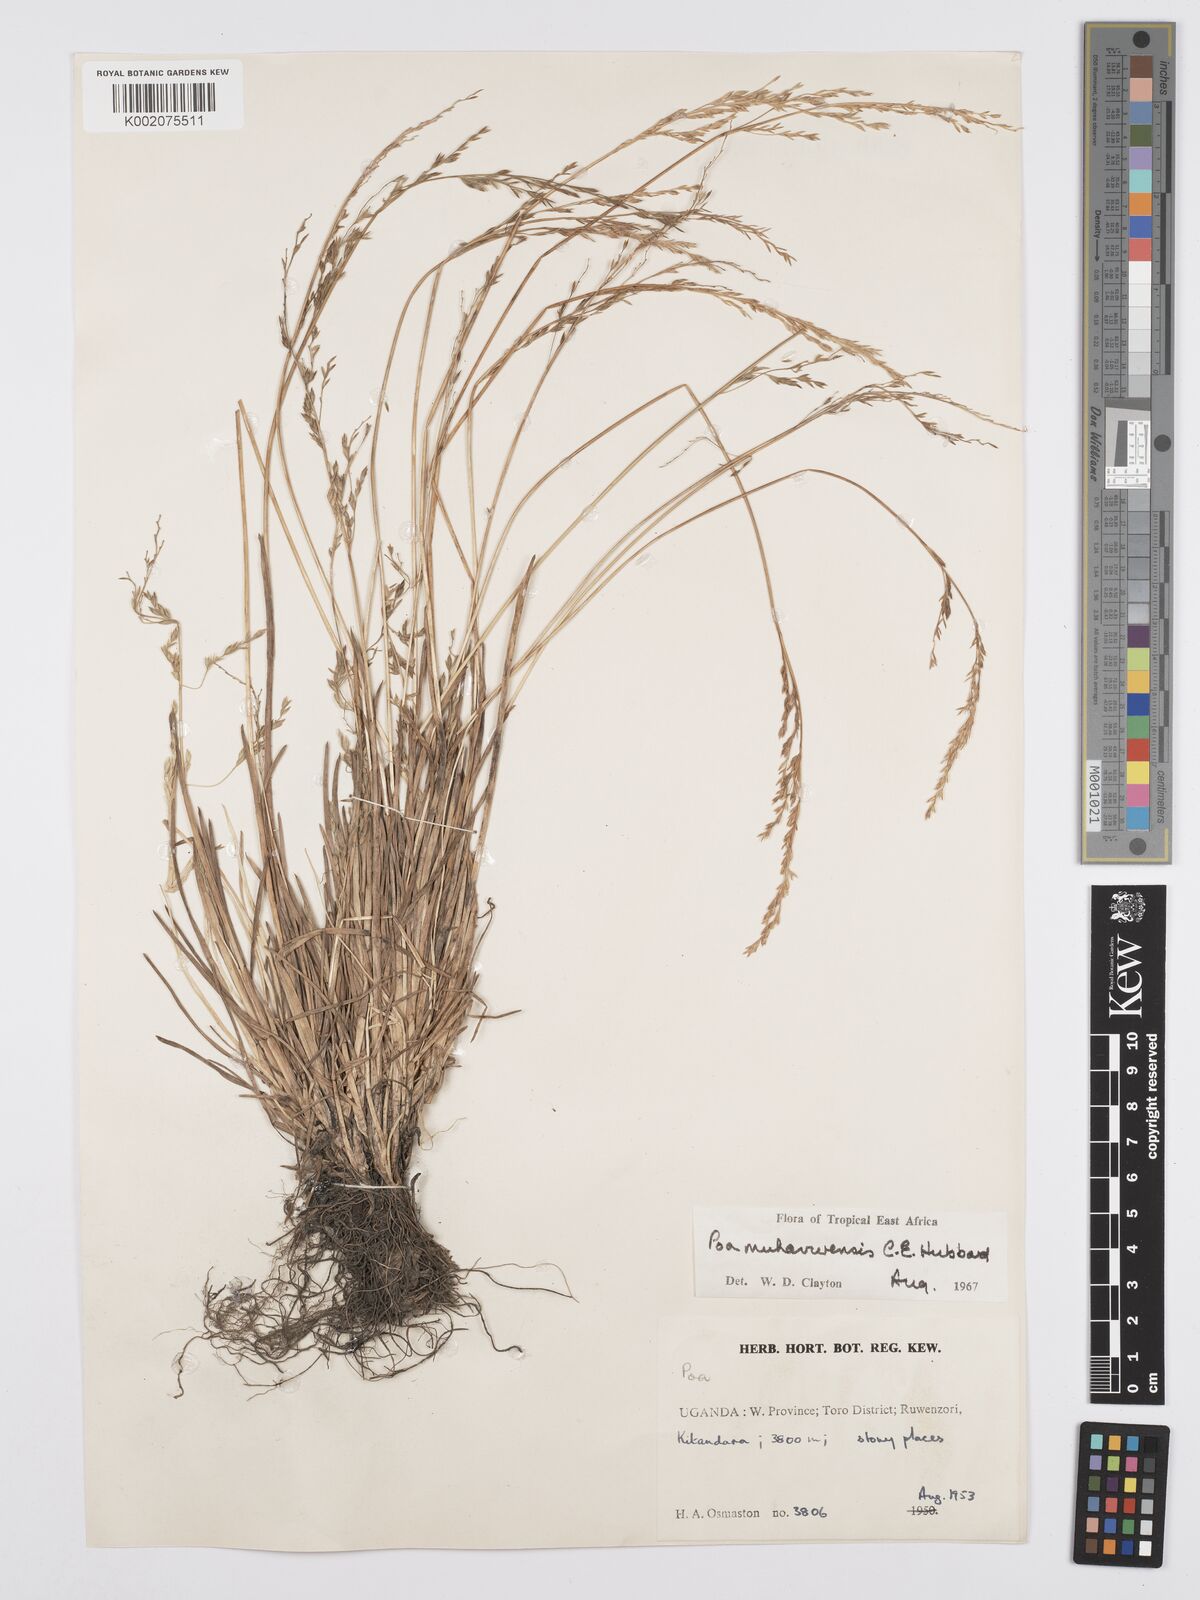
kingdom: Plantae
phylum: Tracheophyta
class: Liliopsida
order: Poales
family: Poaceae
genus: Poa
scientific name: Poa schimperiana
